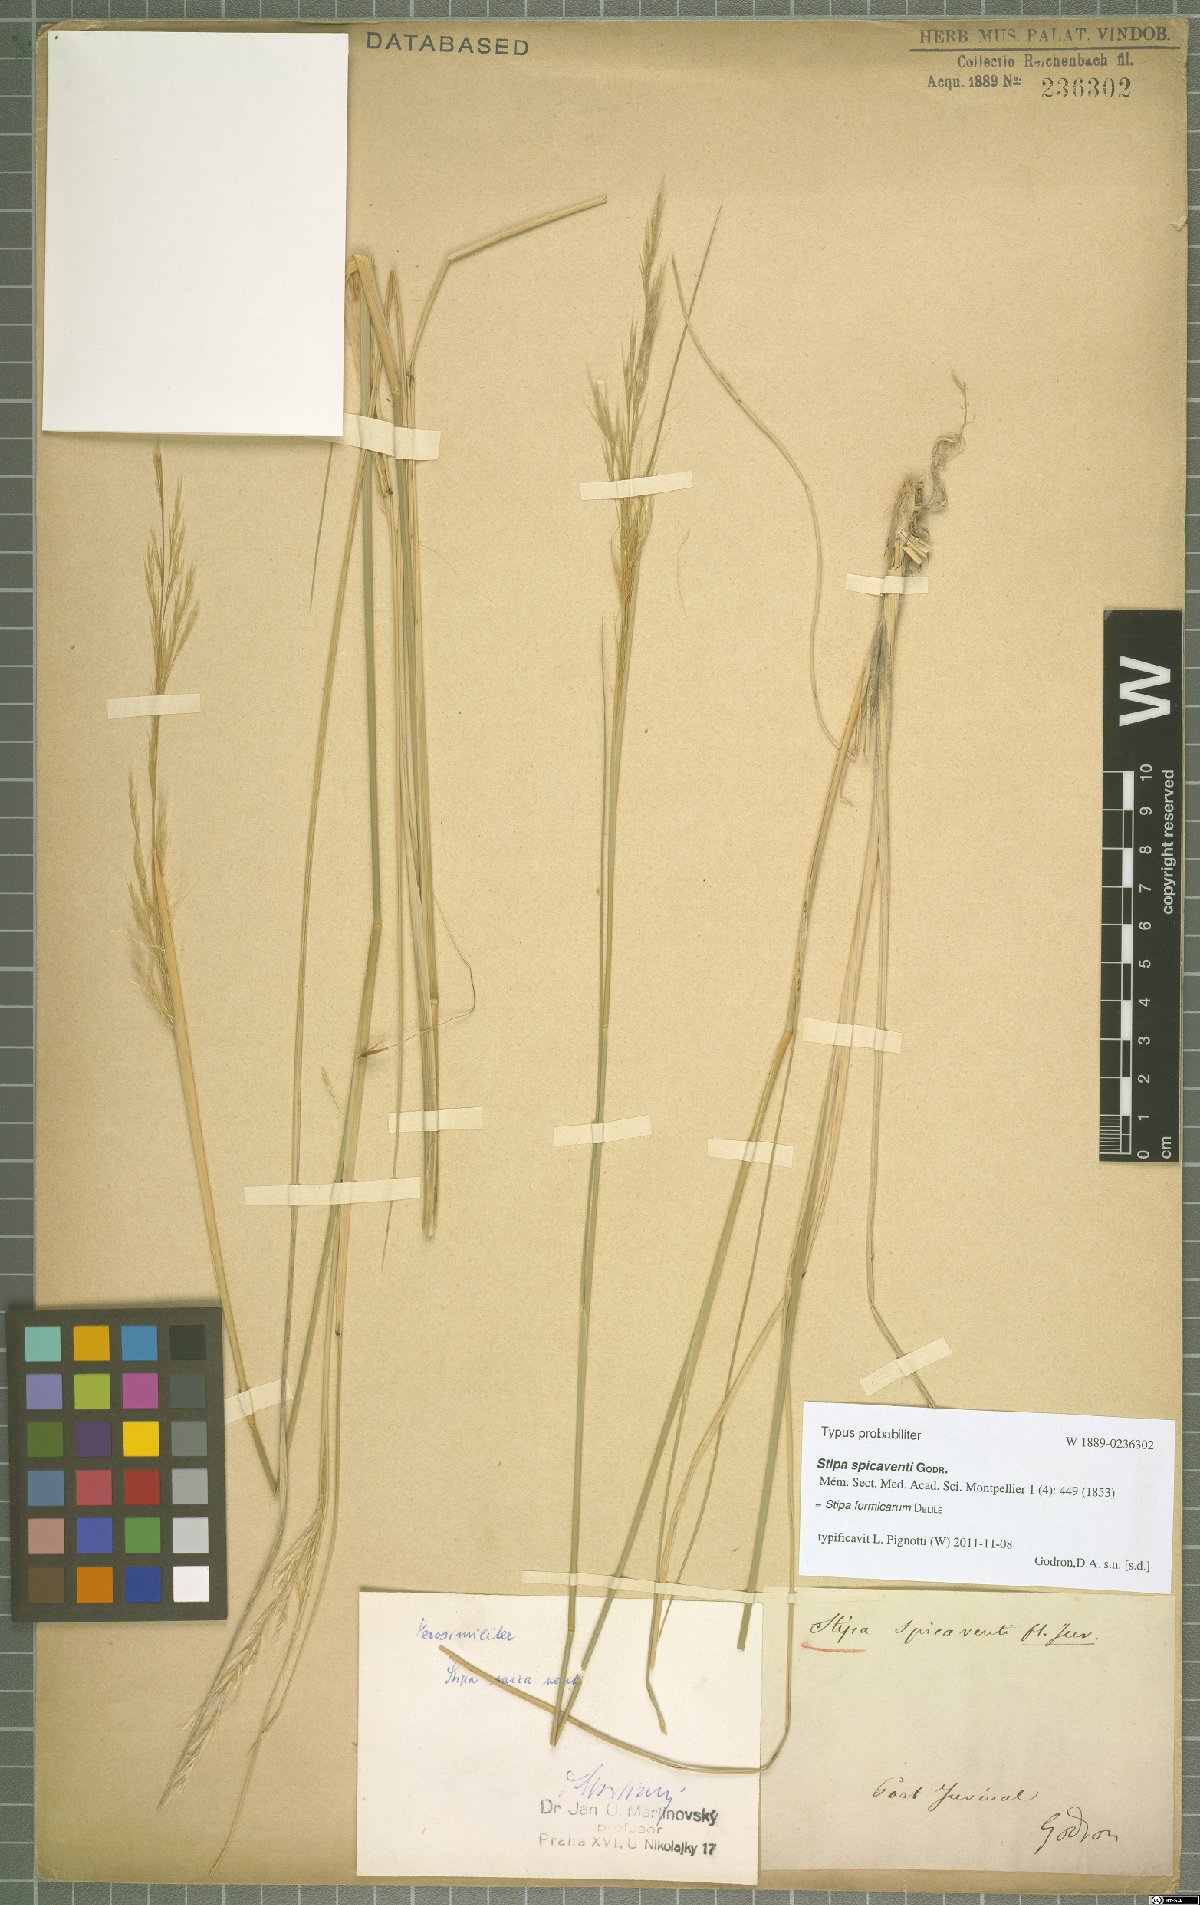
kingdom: Plantae
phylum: Tracheophyta
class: Liliopsida
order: Poales
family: Poaceae
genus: Nassella
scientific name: Nassella formicarum
